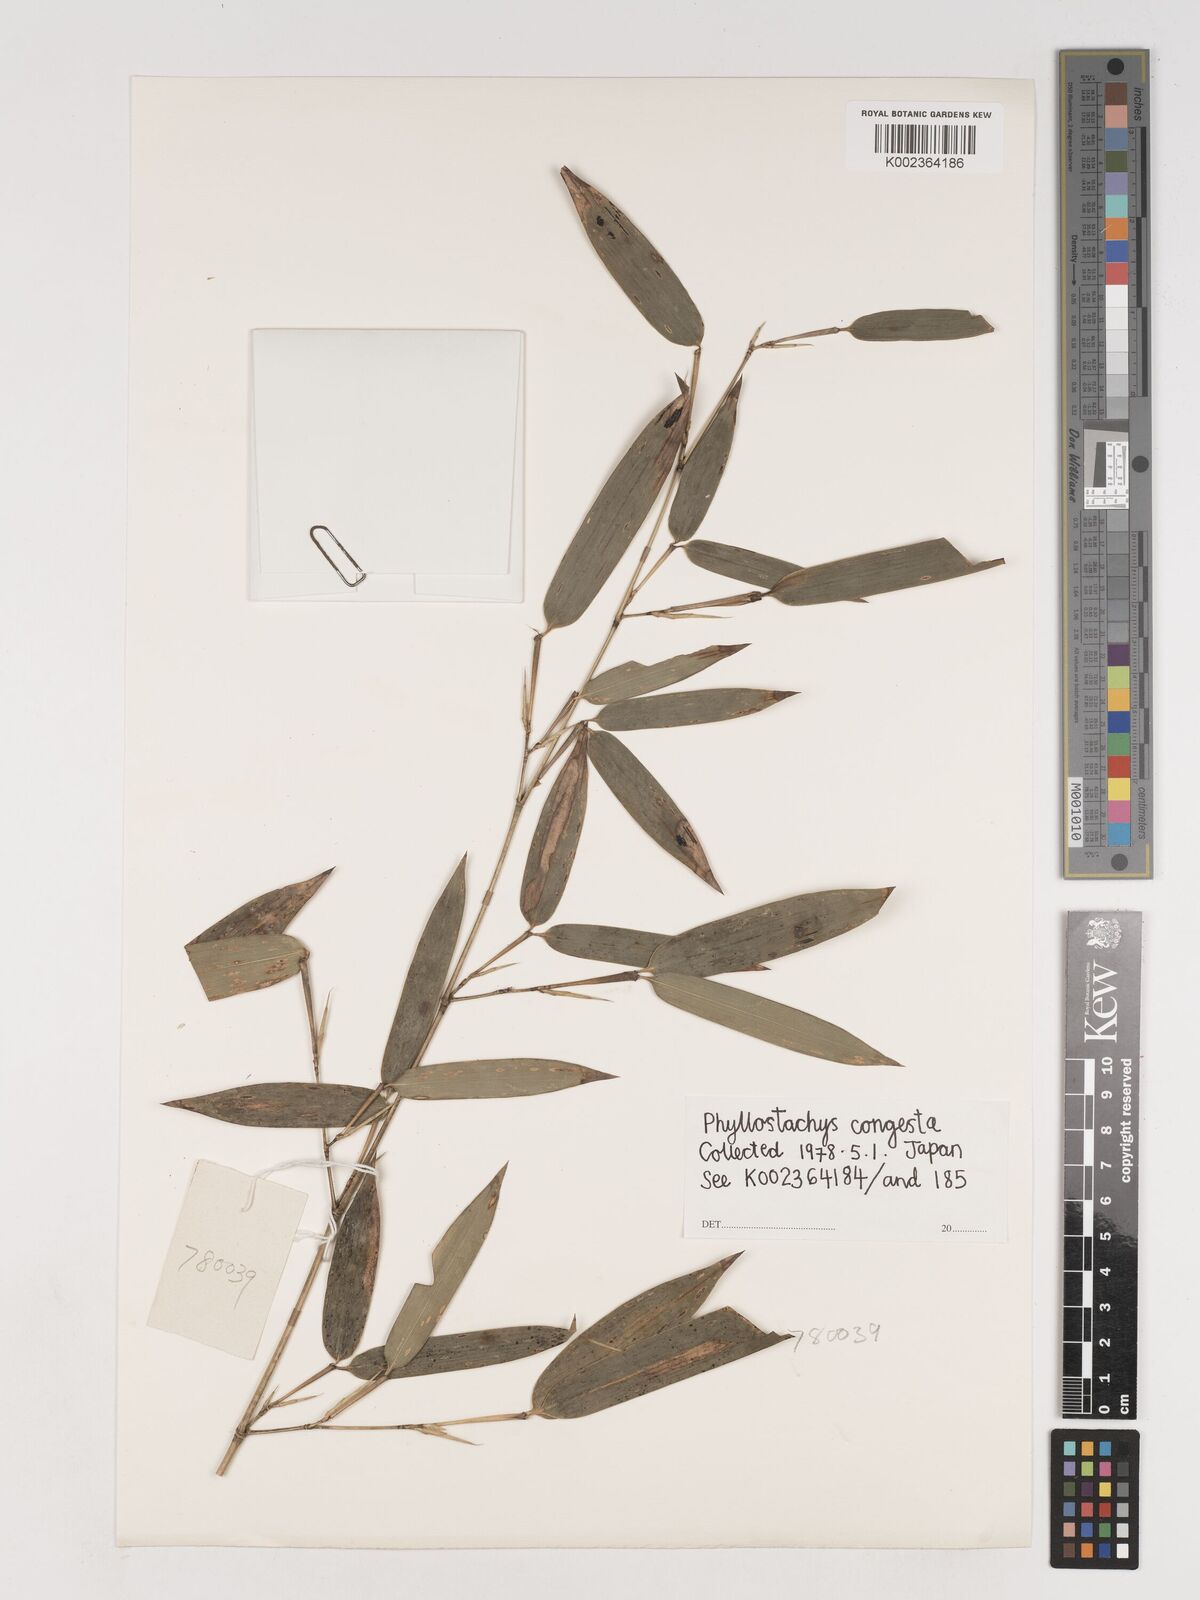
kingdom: Plantae
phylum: Tracheophyta
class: Liliopsida
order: Poales
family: Poaceae
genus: Phyllostachys
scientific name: Phyllostachys heteroclada
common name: Fishscale bamboo
